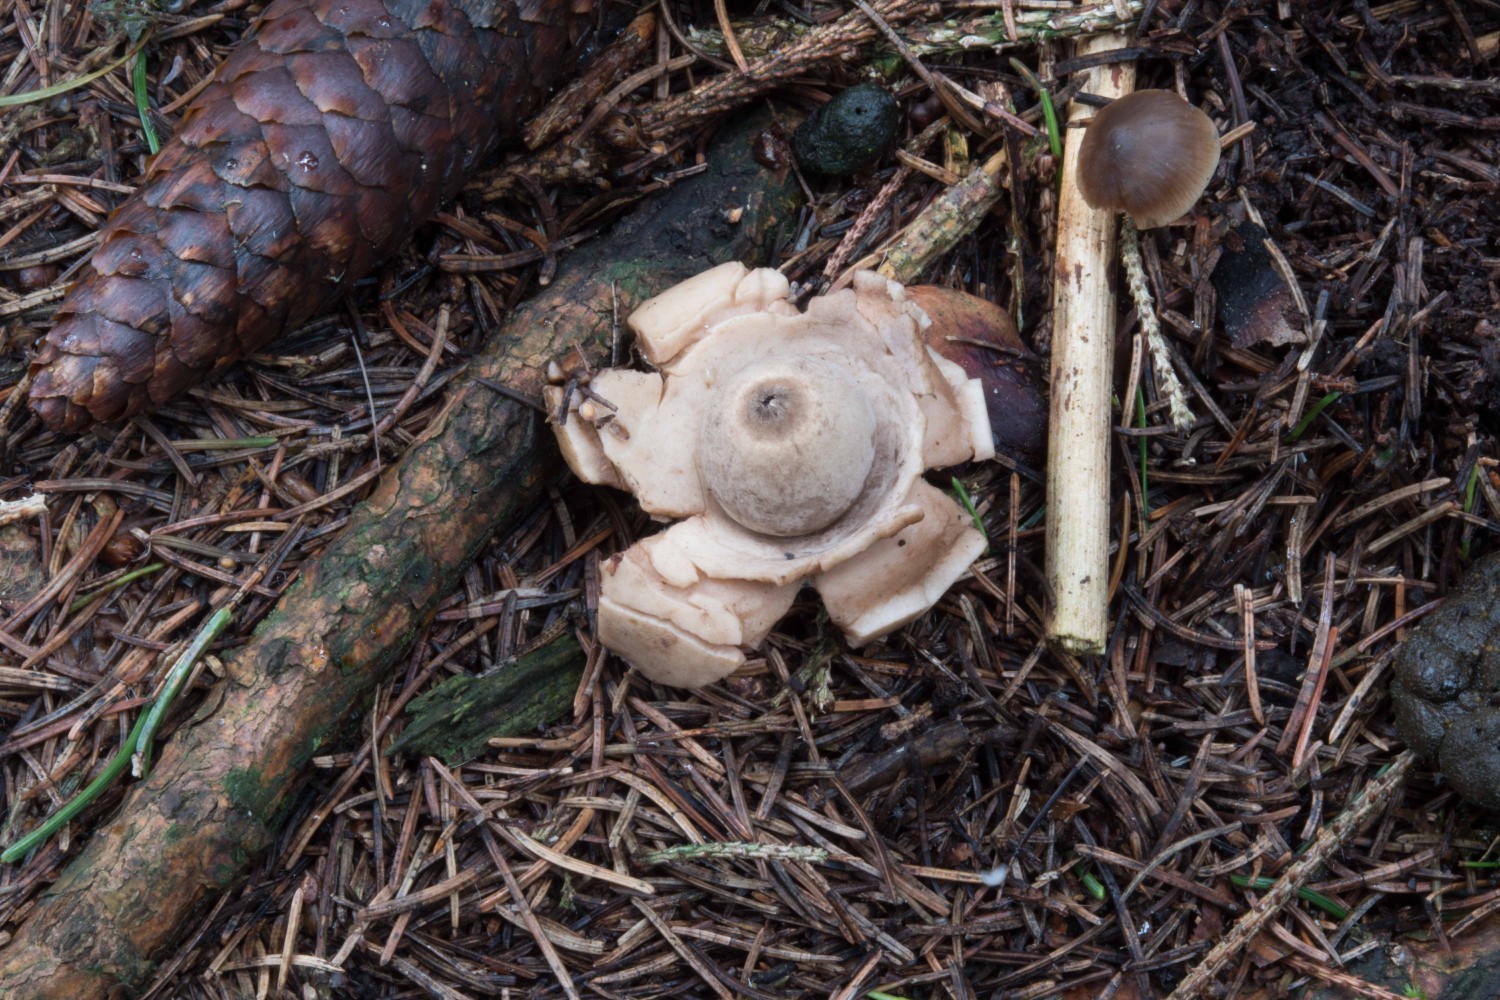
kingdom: Fungi
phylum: Basidiomycota
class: Agaricomycetes
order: Geastrales
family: Geastraceae
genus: Geastrum
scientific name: Geastrum michelianum
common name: kødet stjernebold
